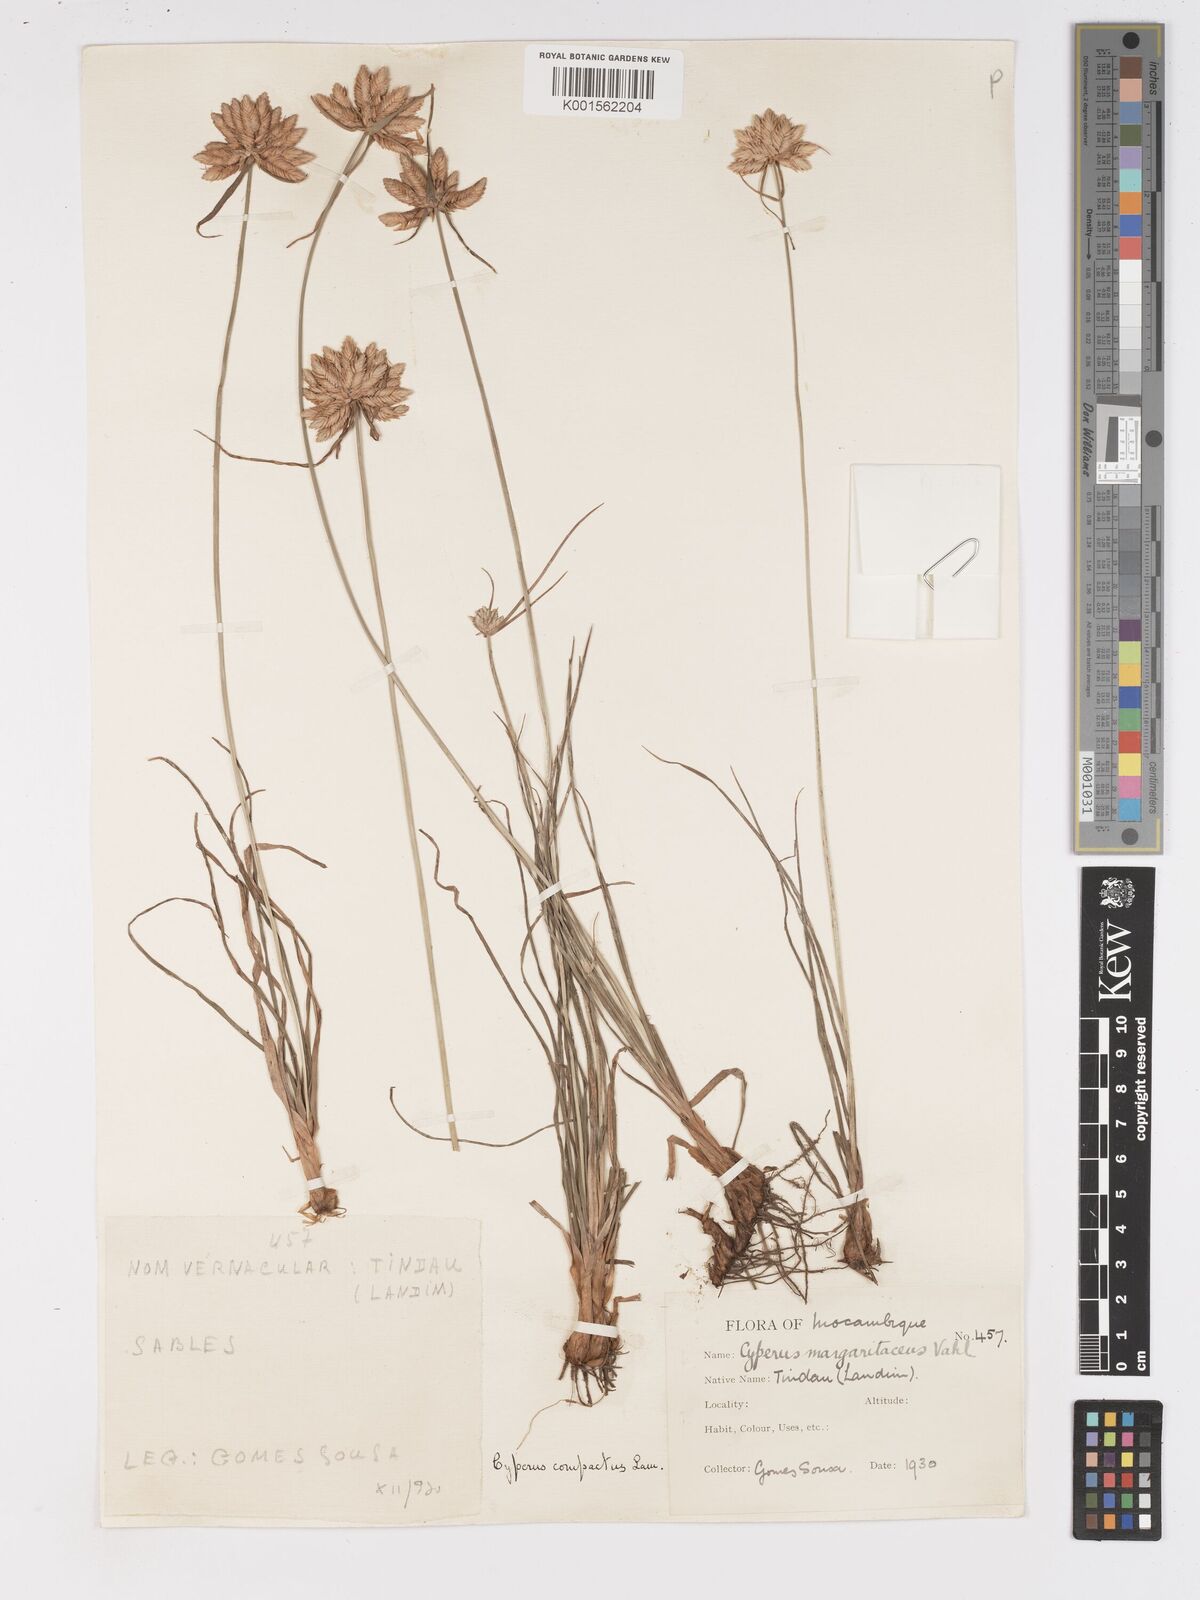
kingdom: Plantae
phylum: Tracheophyta
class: Liliopsida
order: Poales
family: Cyperaceae
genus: Cyperus
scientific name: Cyperus niveus
